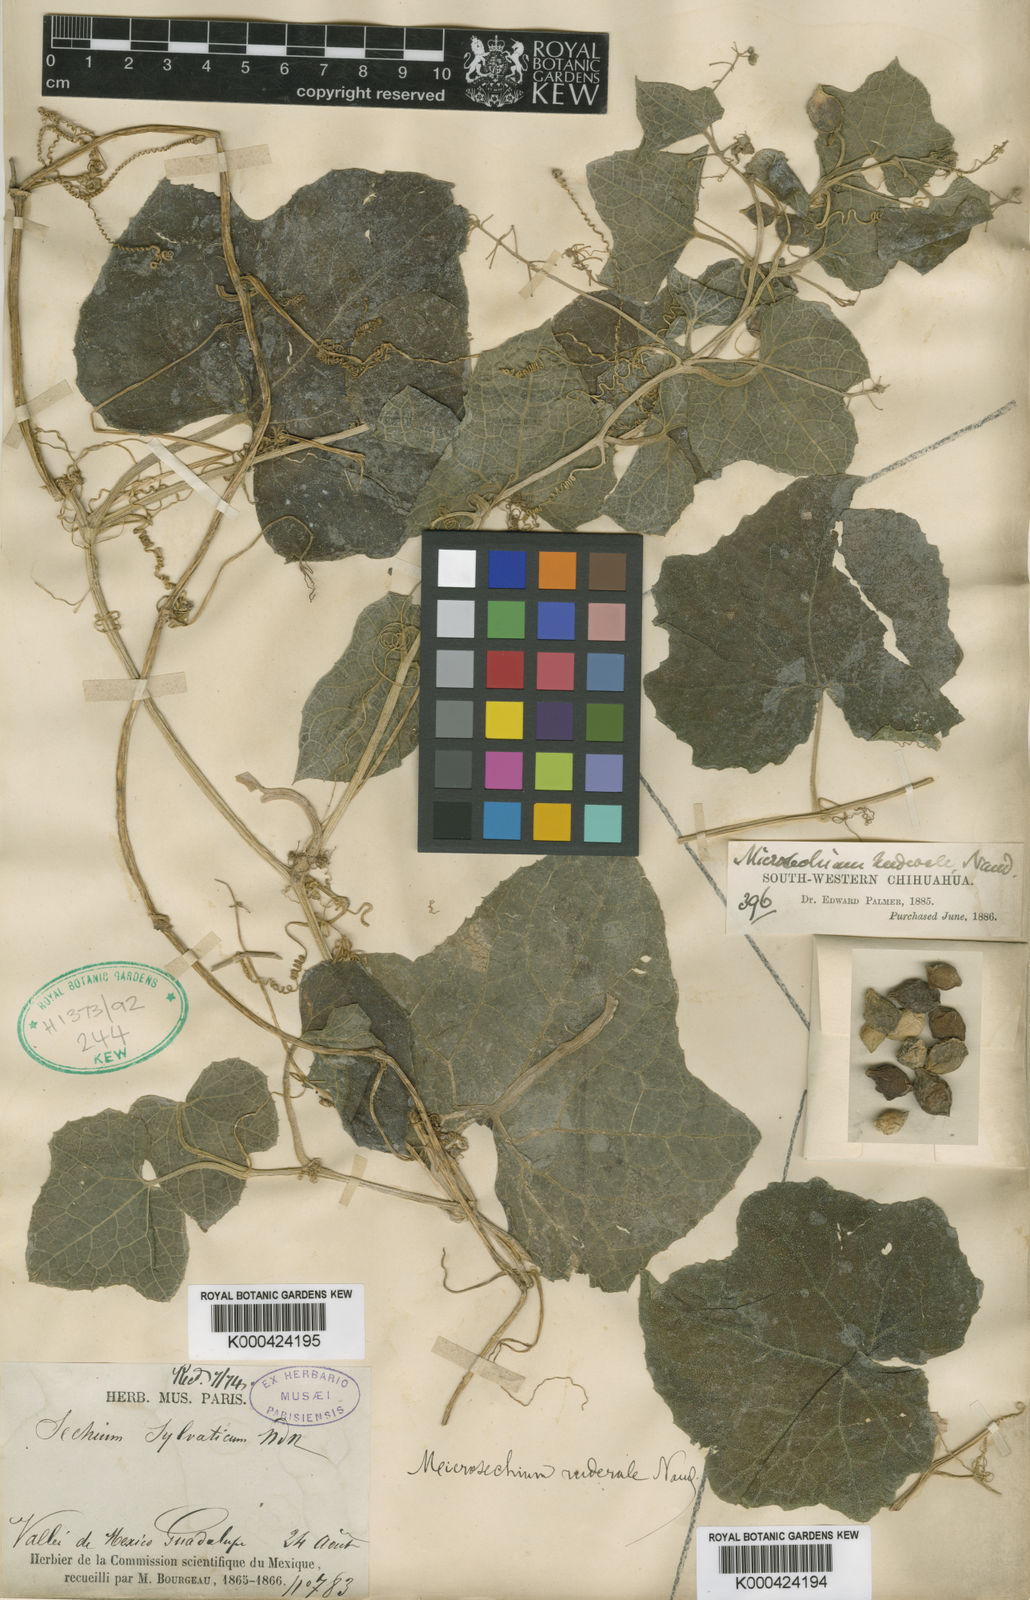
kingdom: Plantae
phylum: Tracheophyta
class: Magnoliopsida
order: Cucurbitales
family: Cucurbitaceae
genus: Microsechium
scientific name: Microsechium palmatum
